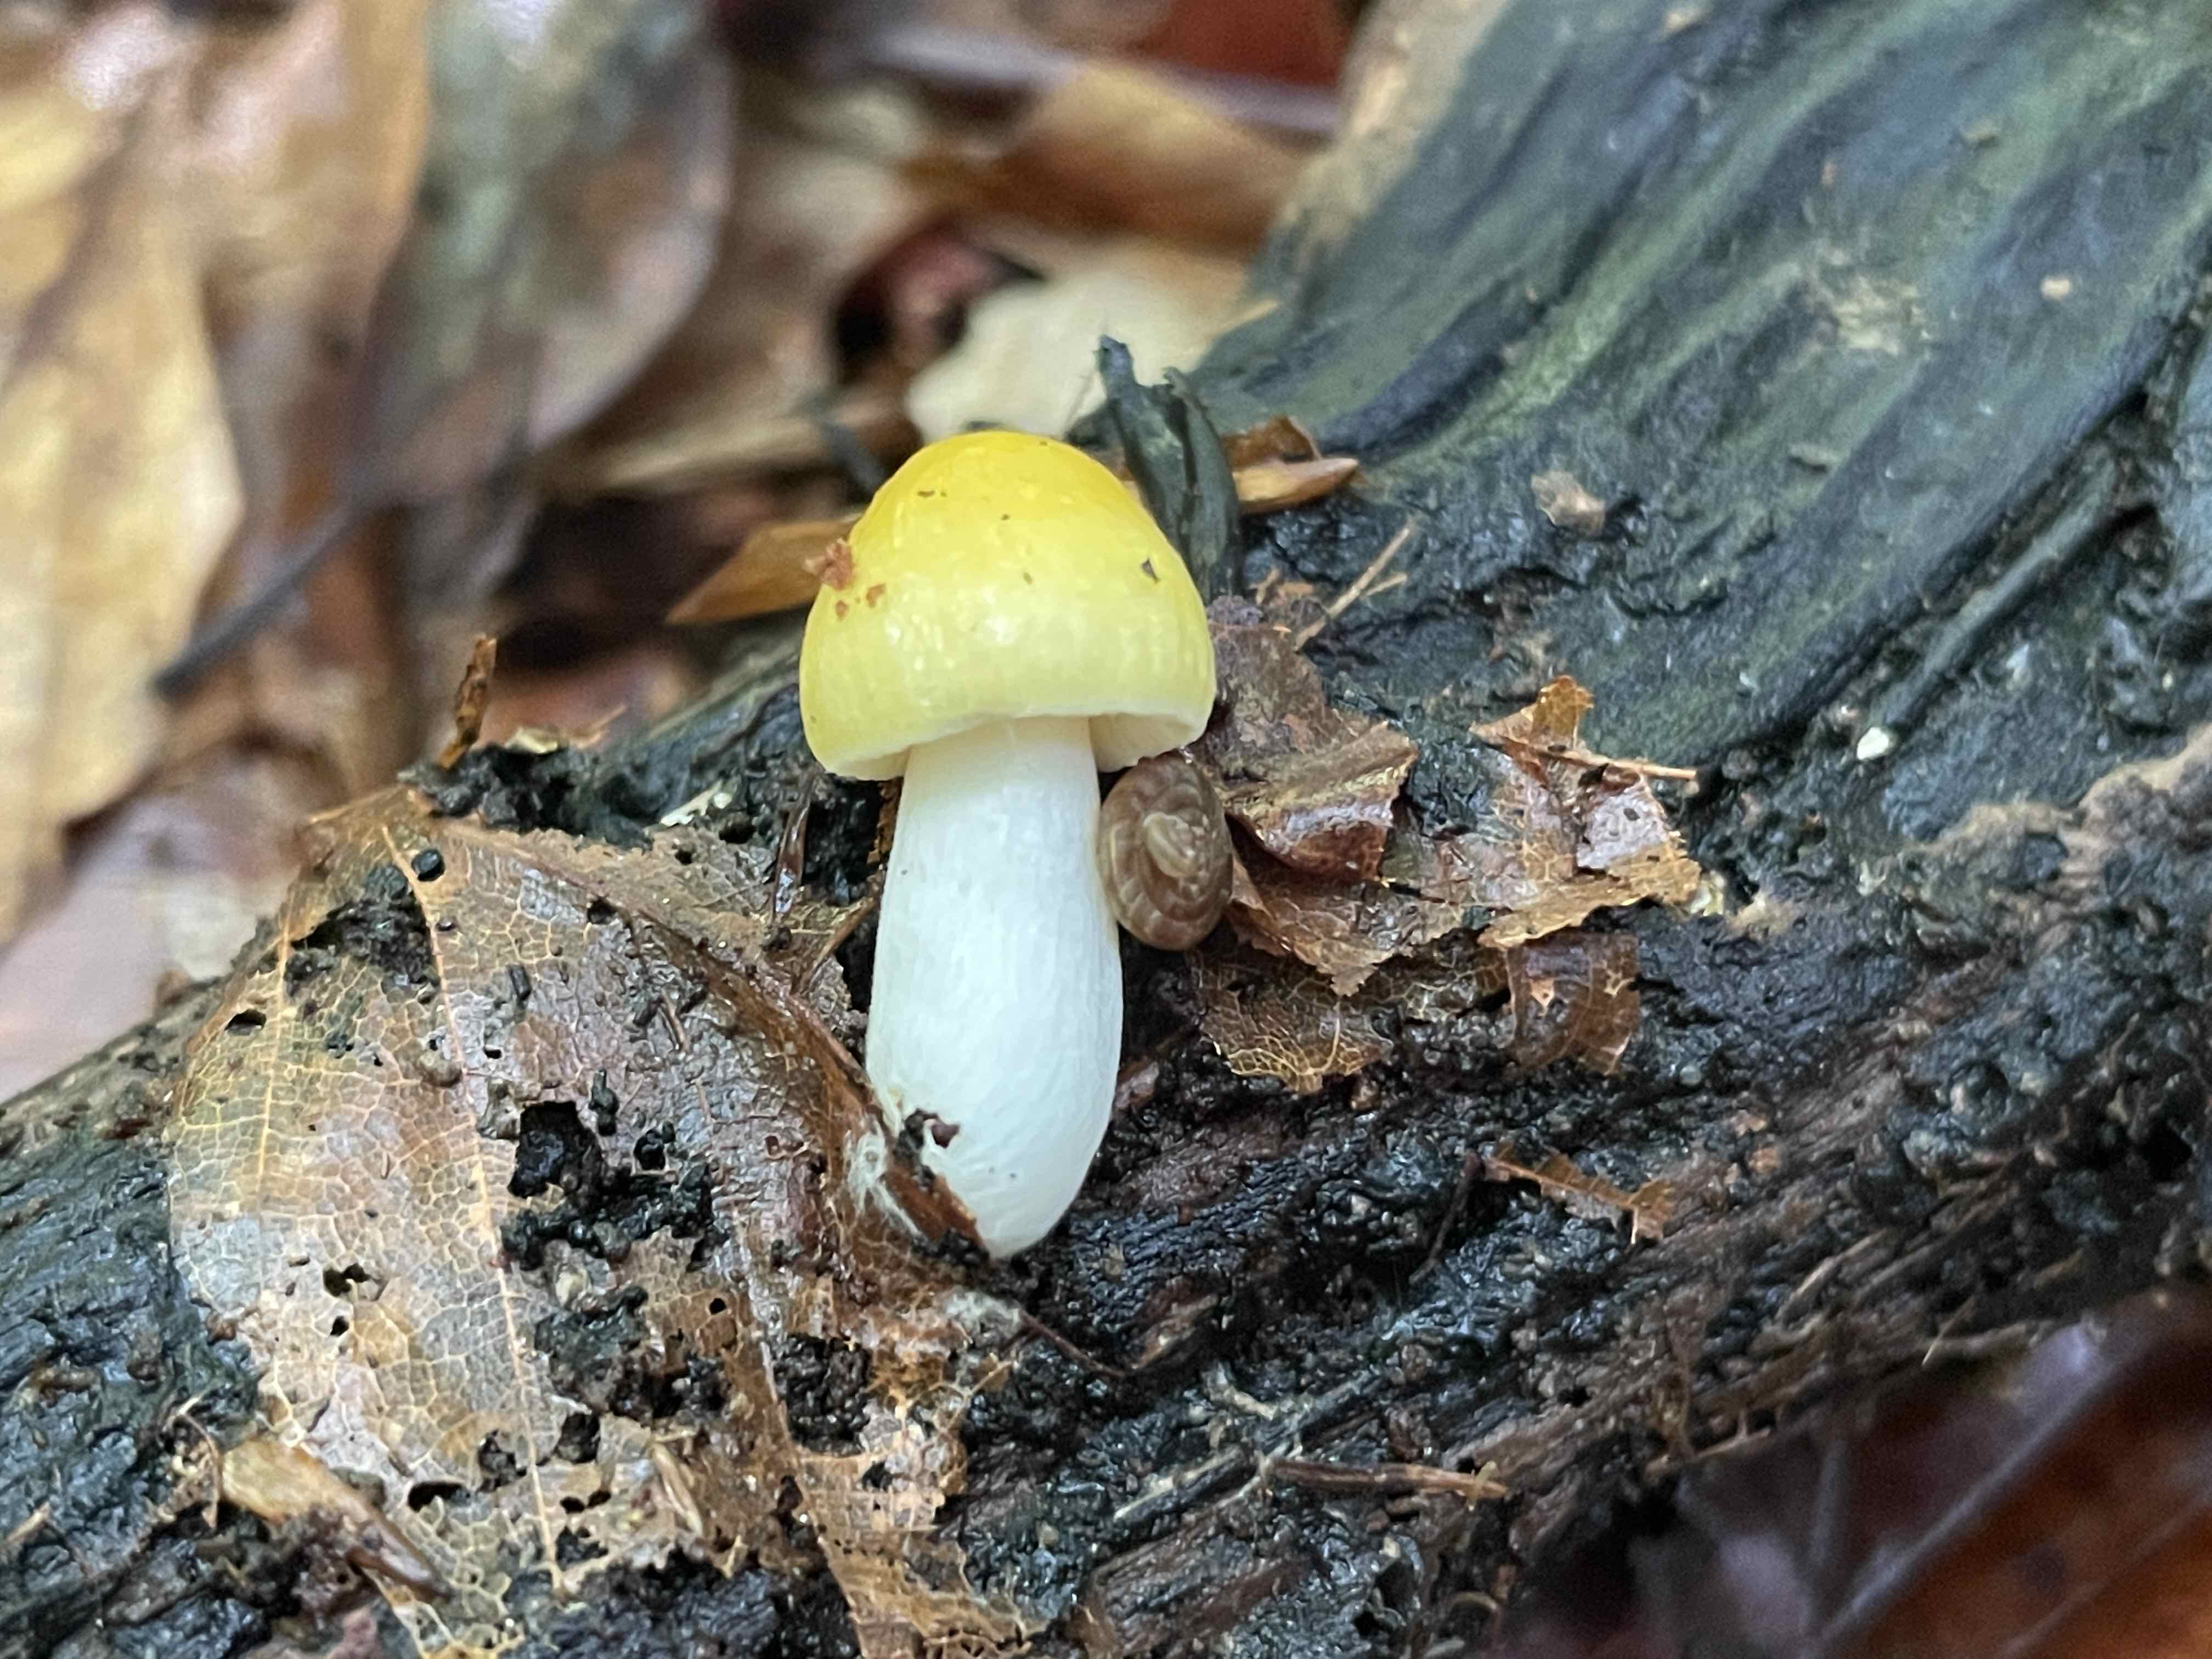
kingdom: Fungi
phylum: Basidiomycota
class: Agaricomycetes
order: Russulales
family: Russulaceae
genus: Russula
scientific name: Russula solaris
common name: sol-skørhat
